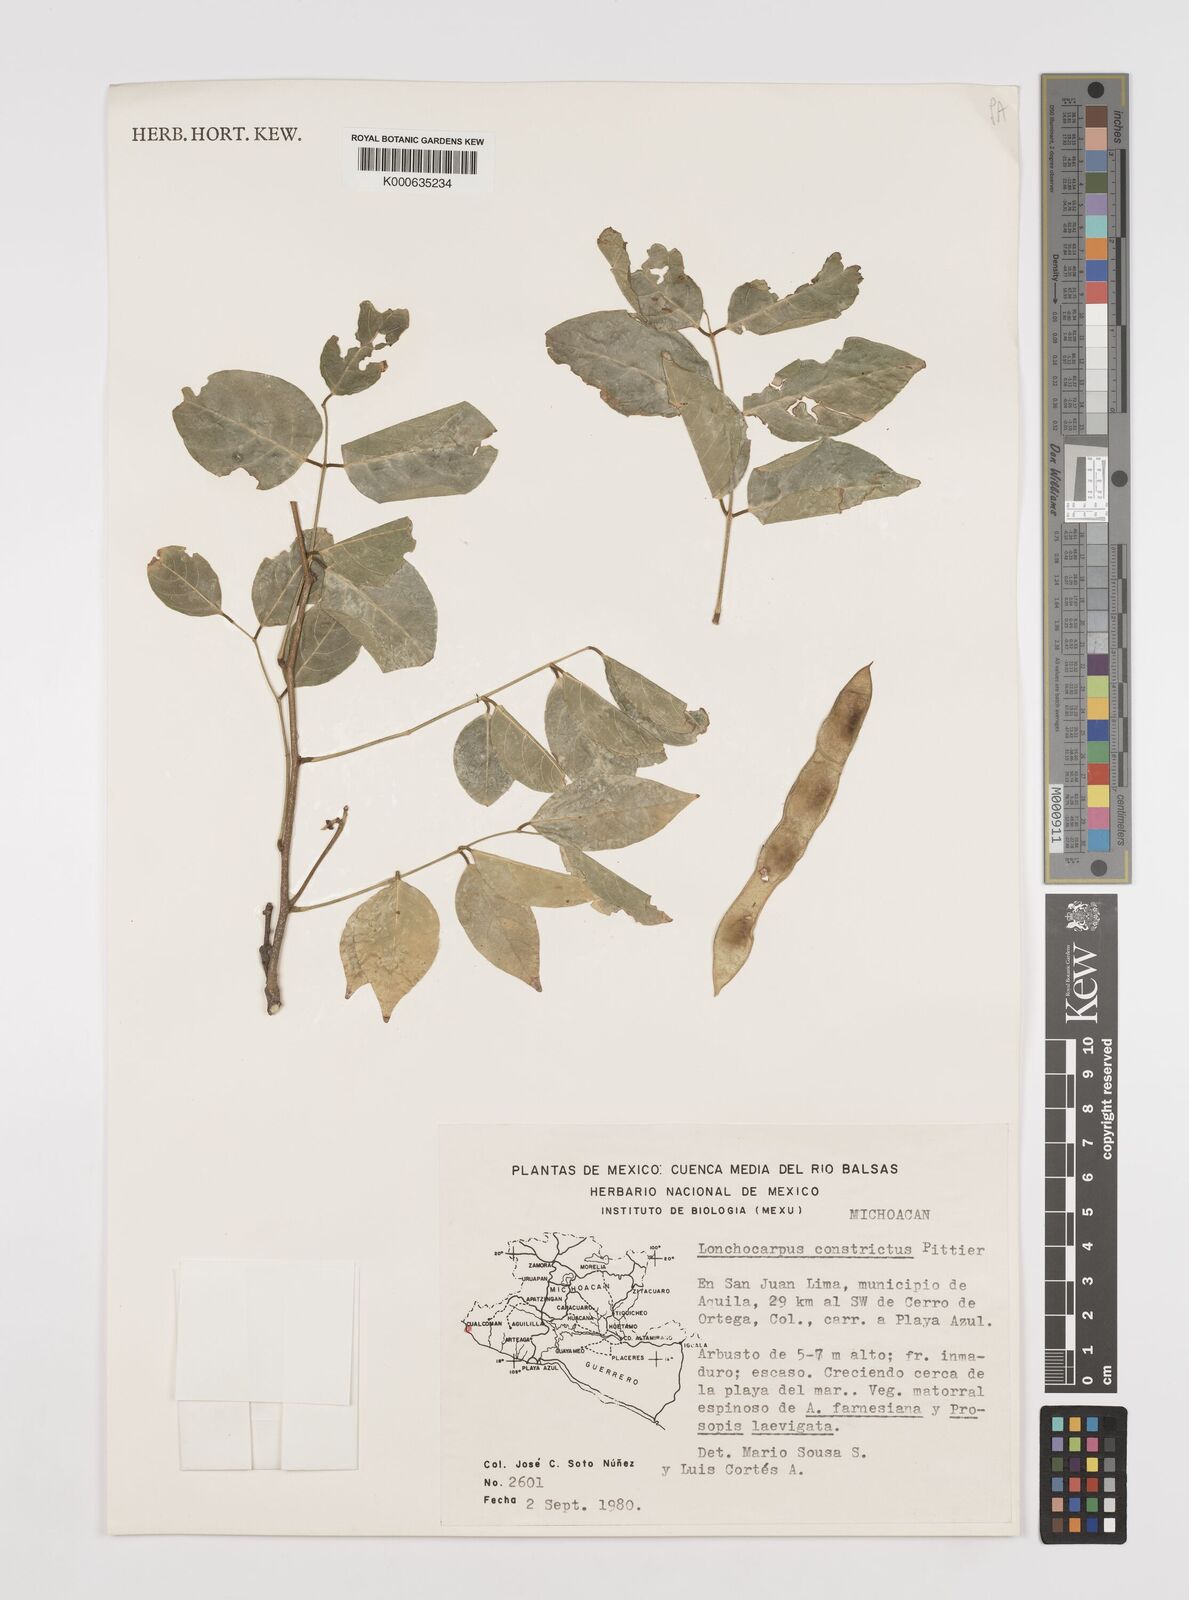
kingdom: Plantae
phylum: Tracheophyta
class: Magnoliopsida
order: Fabales
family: Fabaceae
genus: Lonchocarpus
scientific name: Lonchocarpus constrictus
